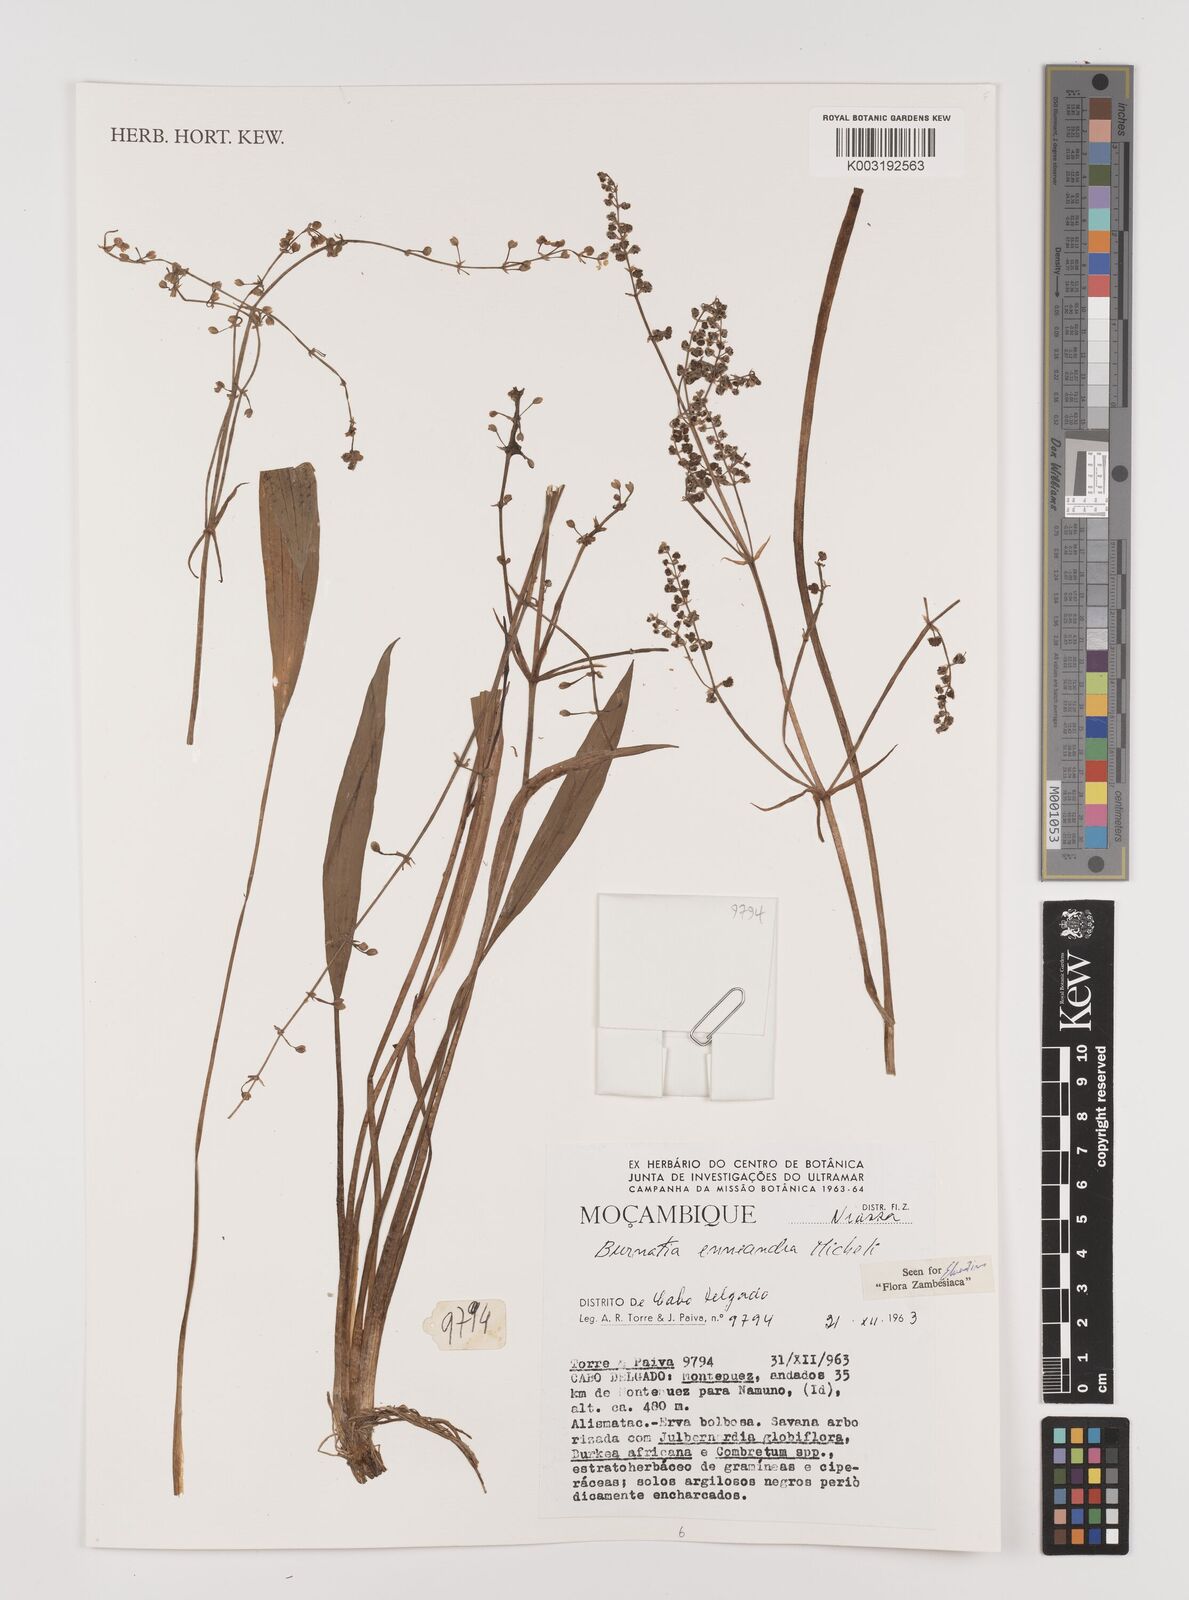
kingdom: Plantae
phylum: Tracheophyta
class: Liliopsida
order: Alismatales
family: Alismataceae
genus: Burnatia
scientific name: Burnatia enneandra
